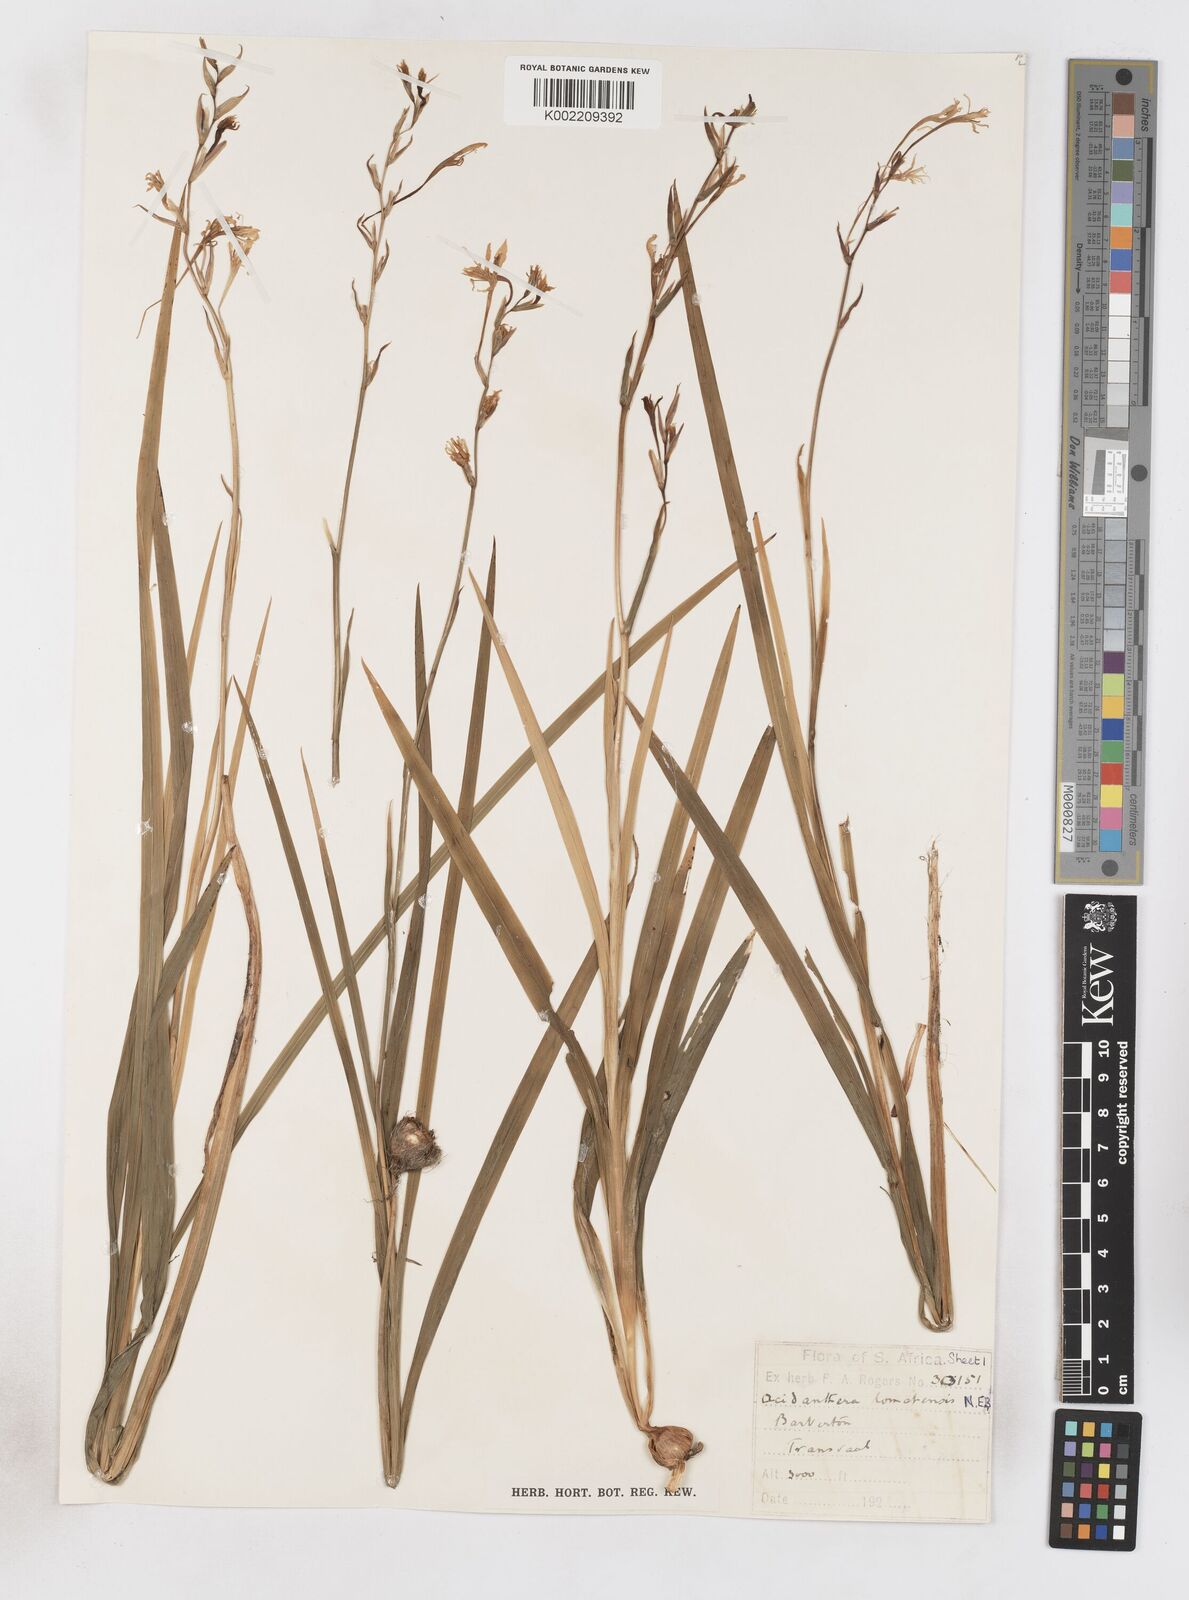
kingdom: Plantae
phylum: Tracheophyta
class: Liliopsida
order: Asparagales
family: Iridaceae
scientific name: Iridaceae
